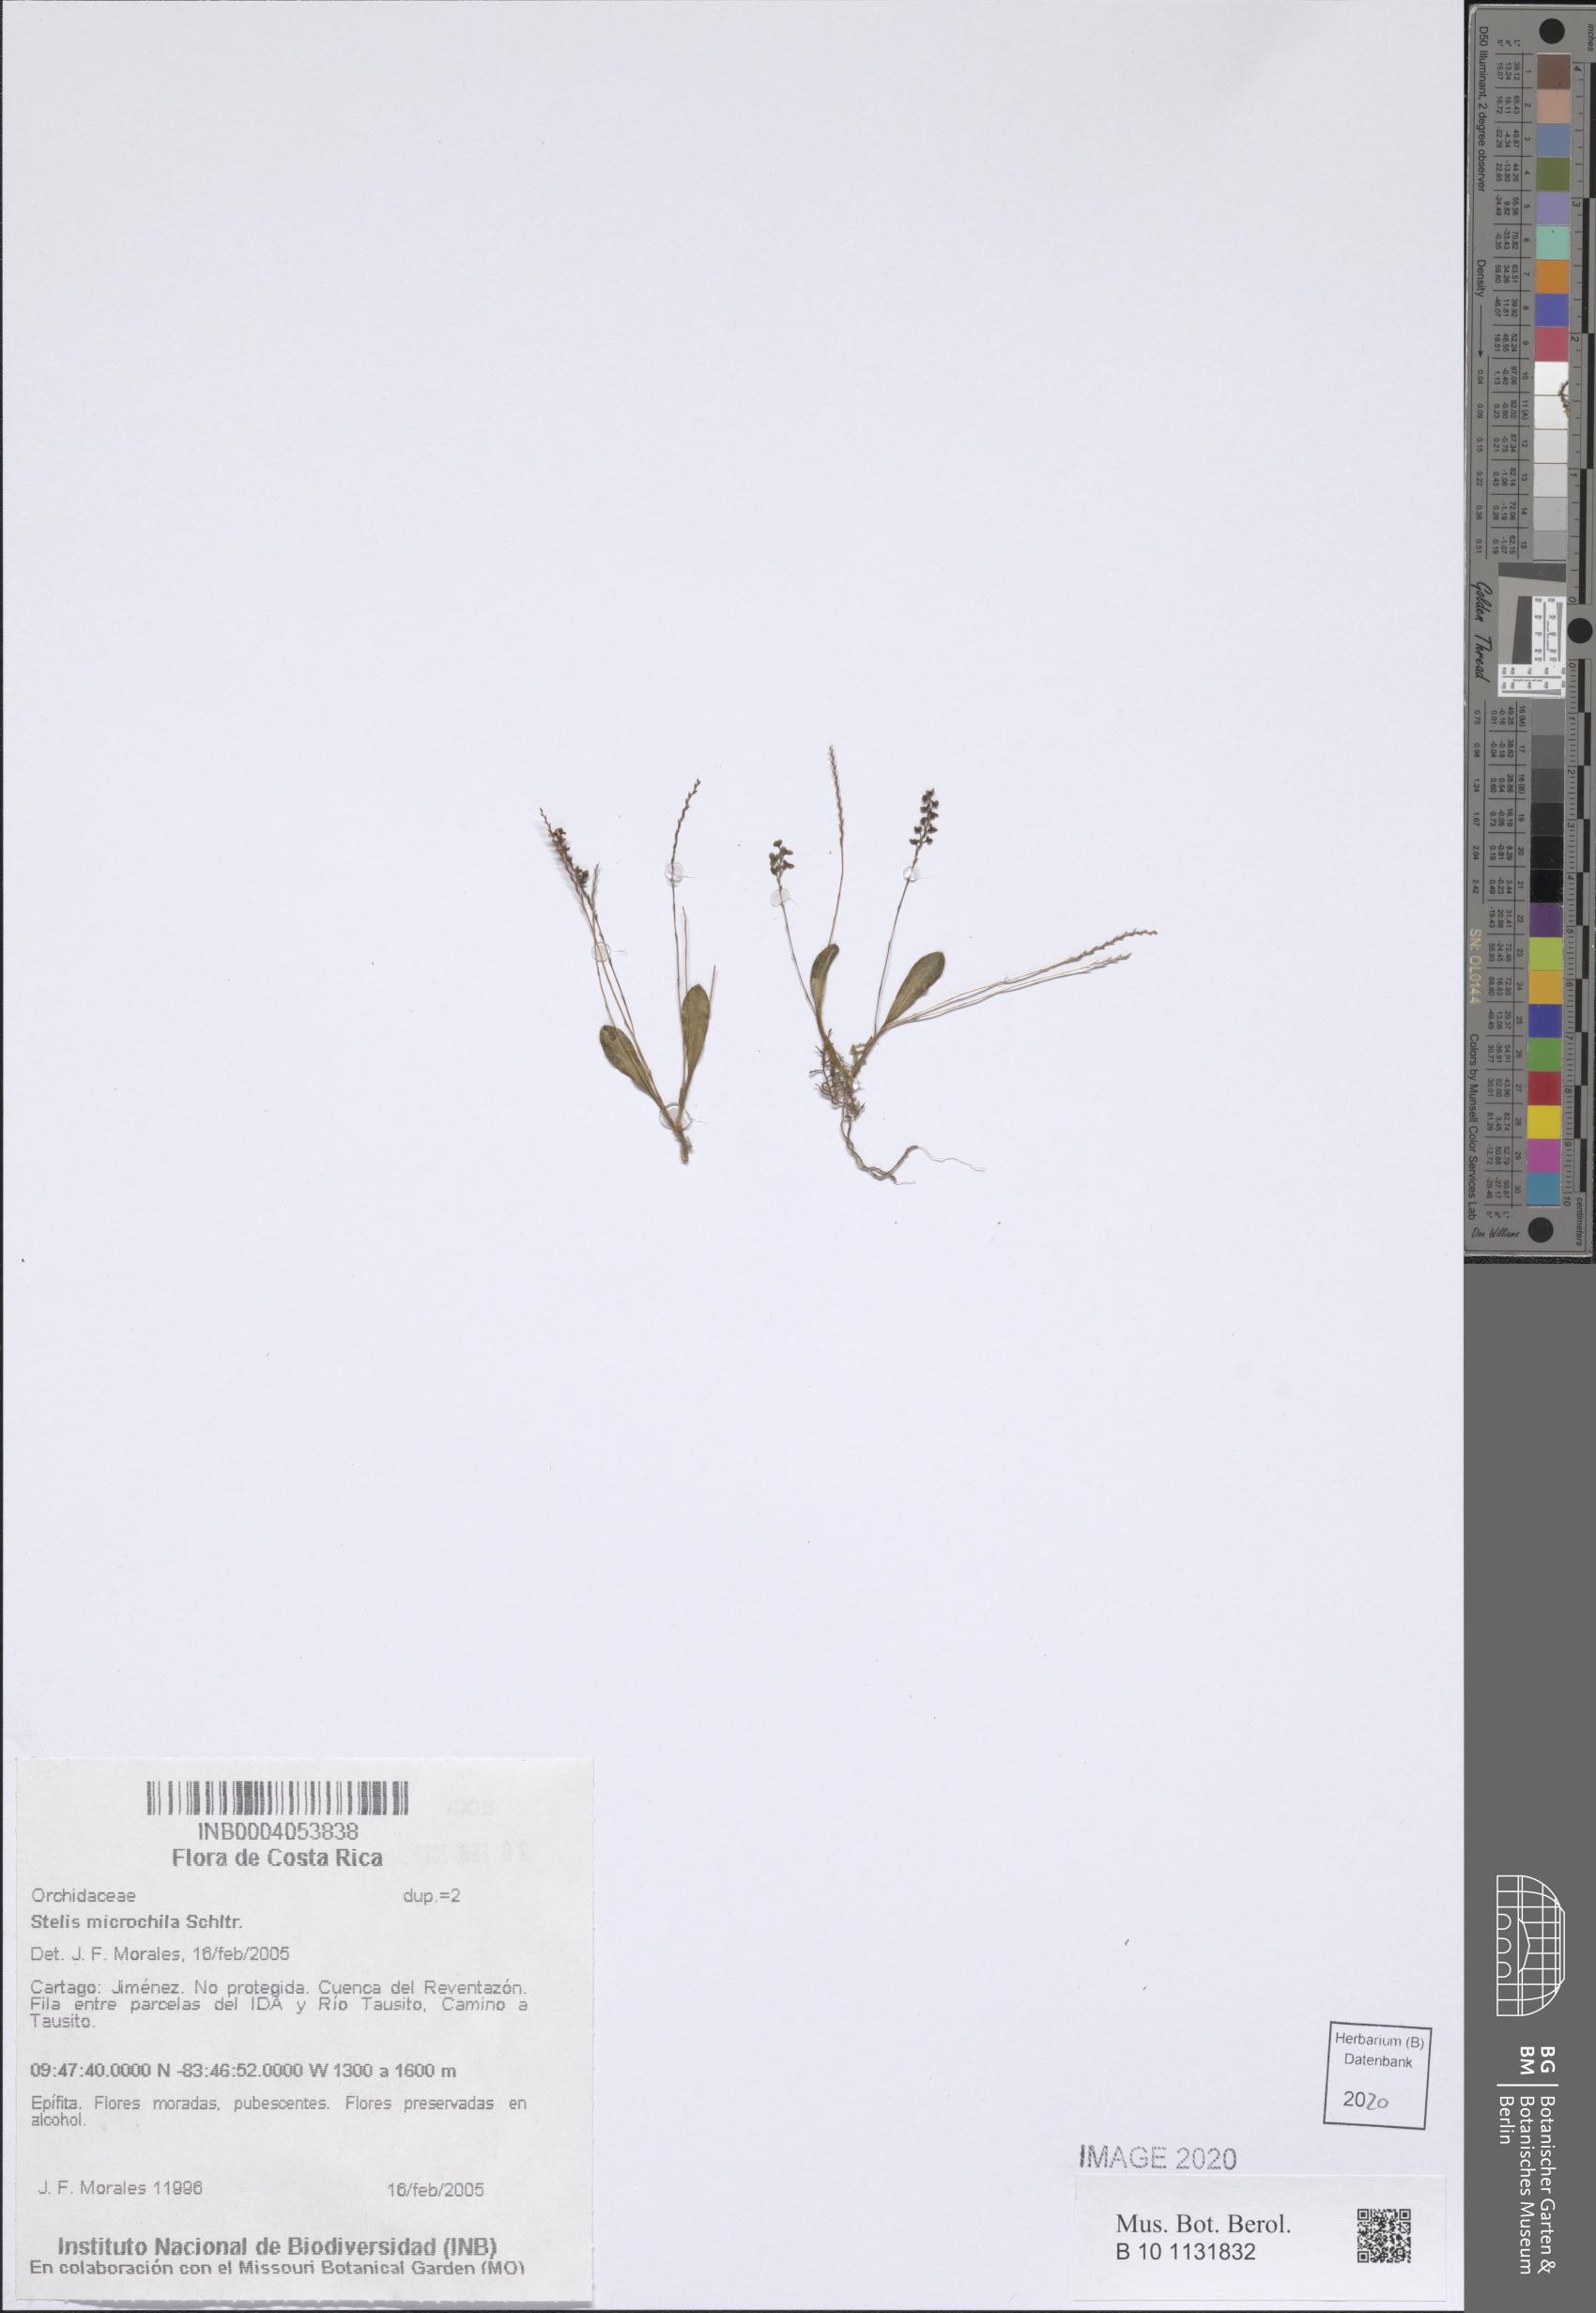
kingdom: Plantae
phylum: Tracheophyta
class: Liliopsida
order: Asparagales
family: Orchidaceae
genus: Stelis
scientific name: Stelis microchila
